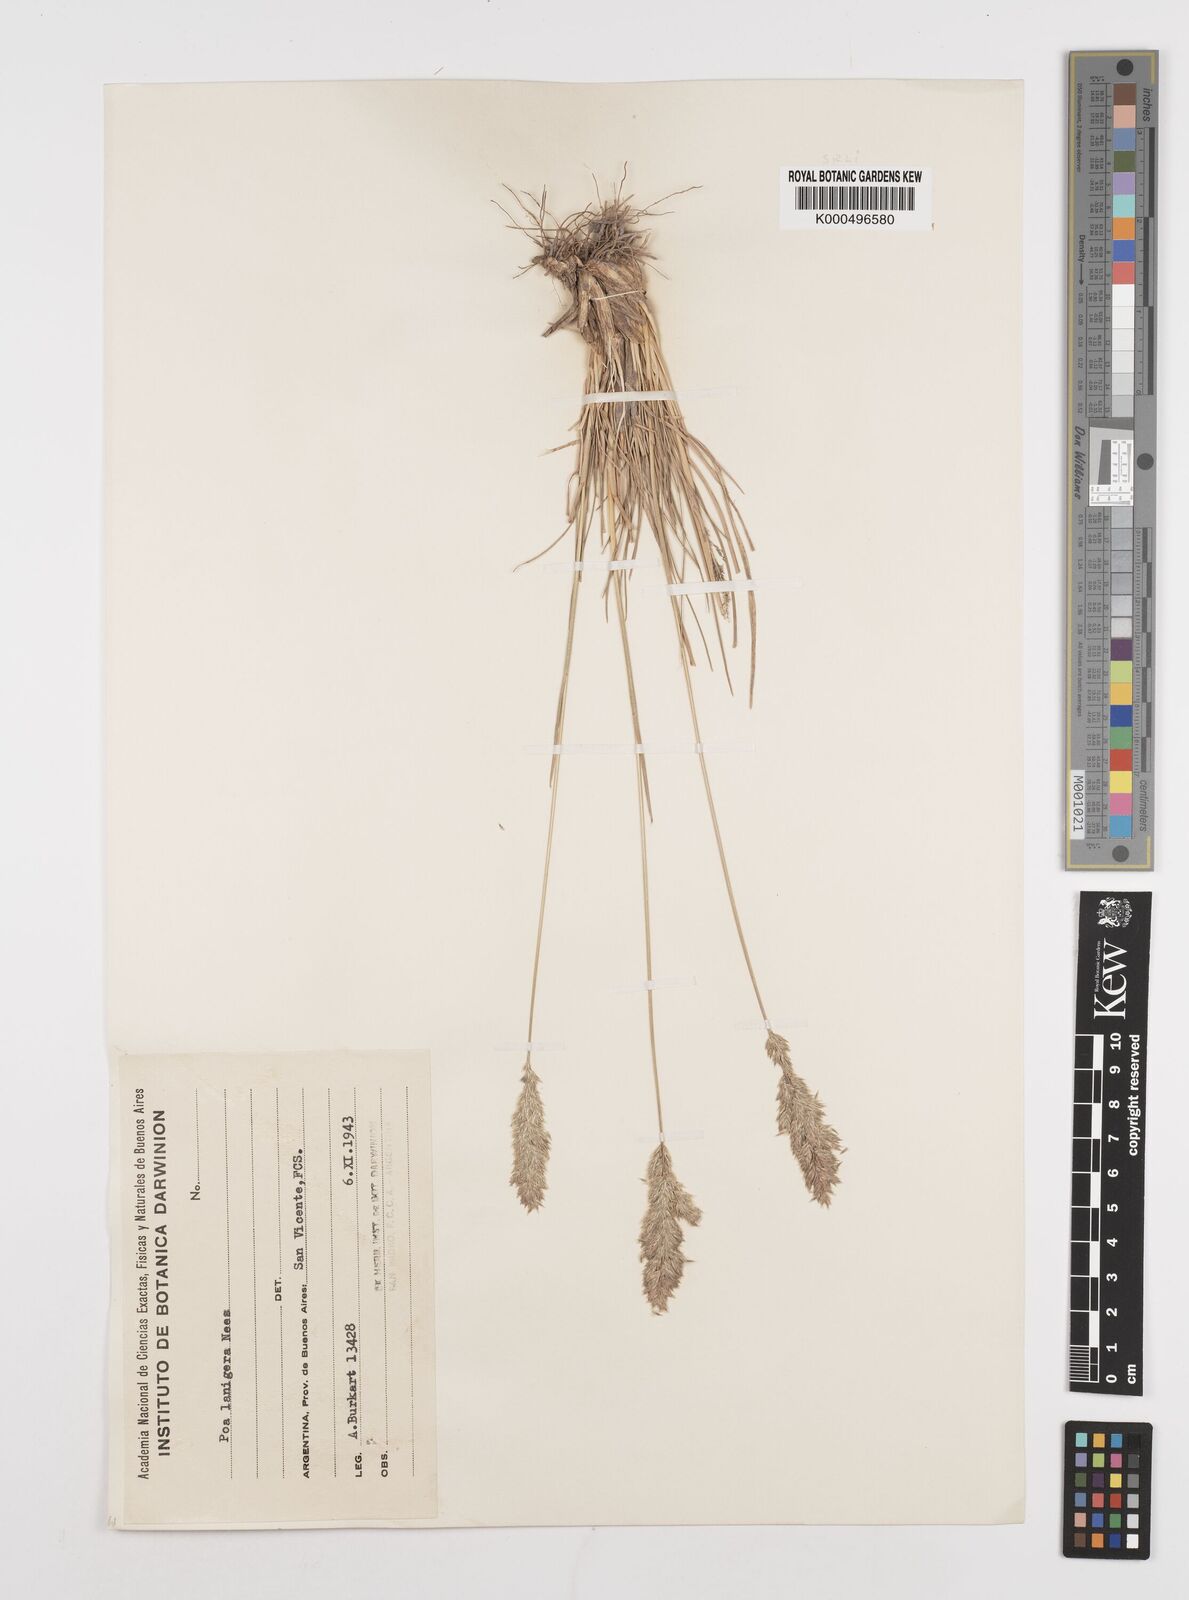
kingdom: Plantae
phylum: Tracheophyta
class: Liliopsida
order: Poales
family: Poaceae
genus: Poa
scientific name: Poa lanigera
